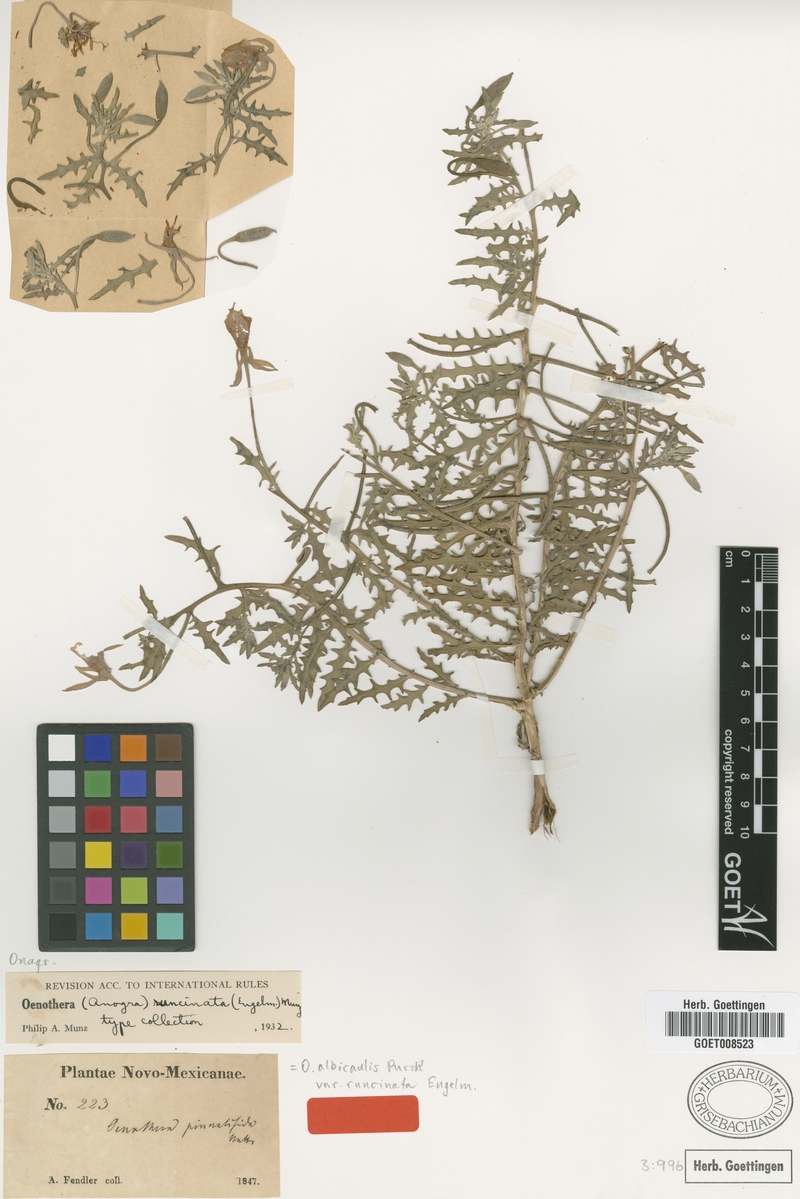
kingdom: Plantae
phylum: Tracheophyta
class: Magnoliopsida
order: Myrtales
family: Onagraceae
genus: Oenothera
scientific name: Oenothera pallida
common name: Pale evening-primrose
